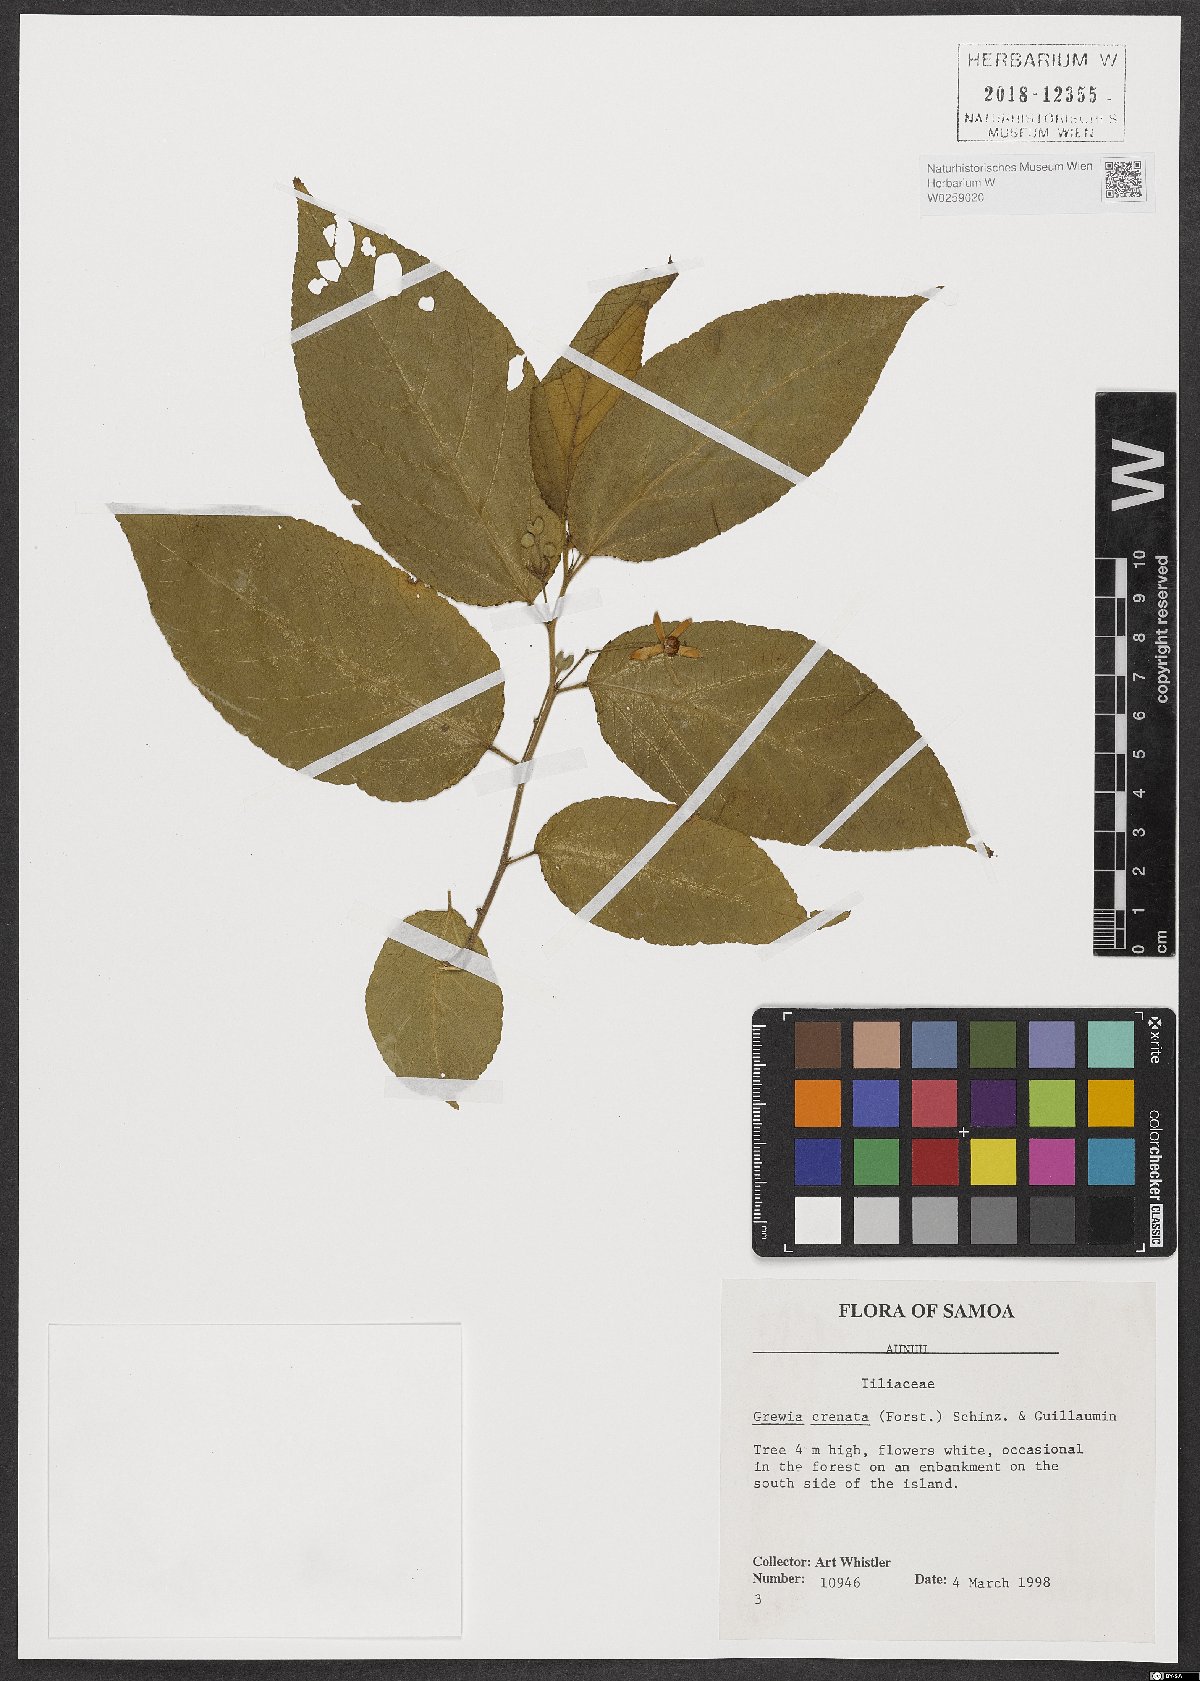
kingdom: Plantae
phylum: Tracheophyta
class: Magnoliopsida
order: Malvales
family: Malvaceae
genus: Grewia
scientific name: Grewia crenata
